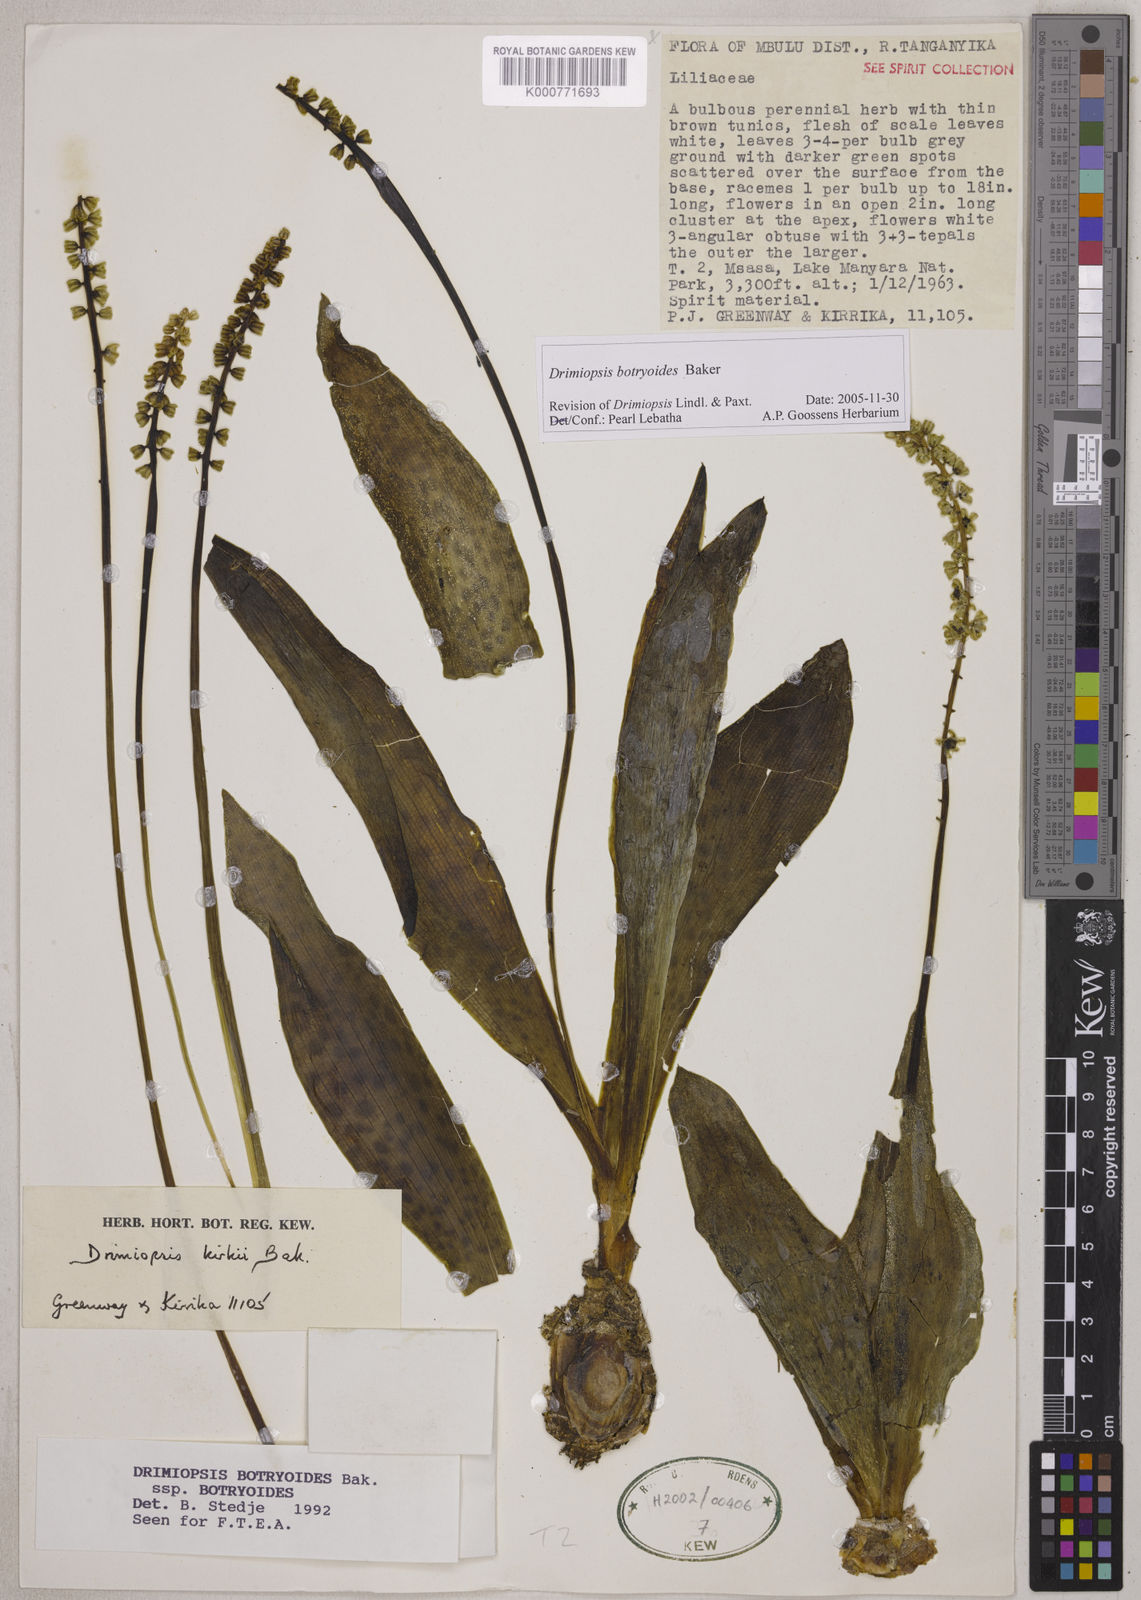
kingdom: Plantae
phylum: Tracheophyta
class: Liliopsida
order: Asparagales
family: Asparagaceae
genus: Drimiopsis
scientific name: Drimiopsis botryoides
